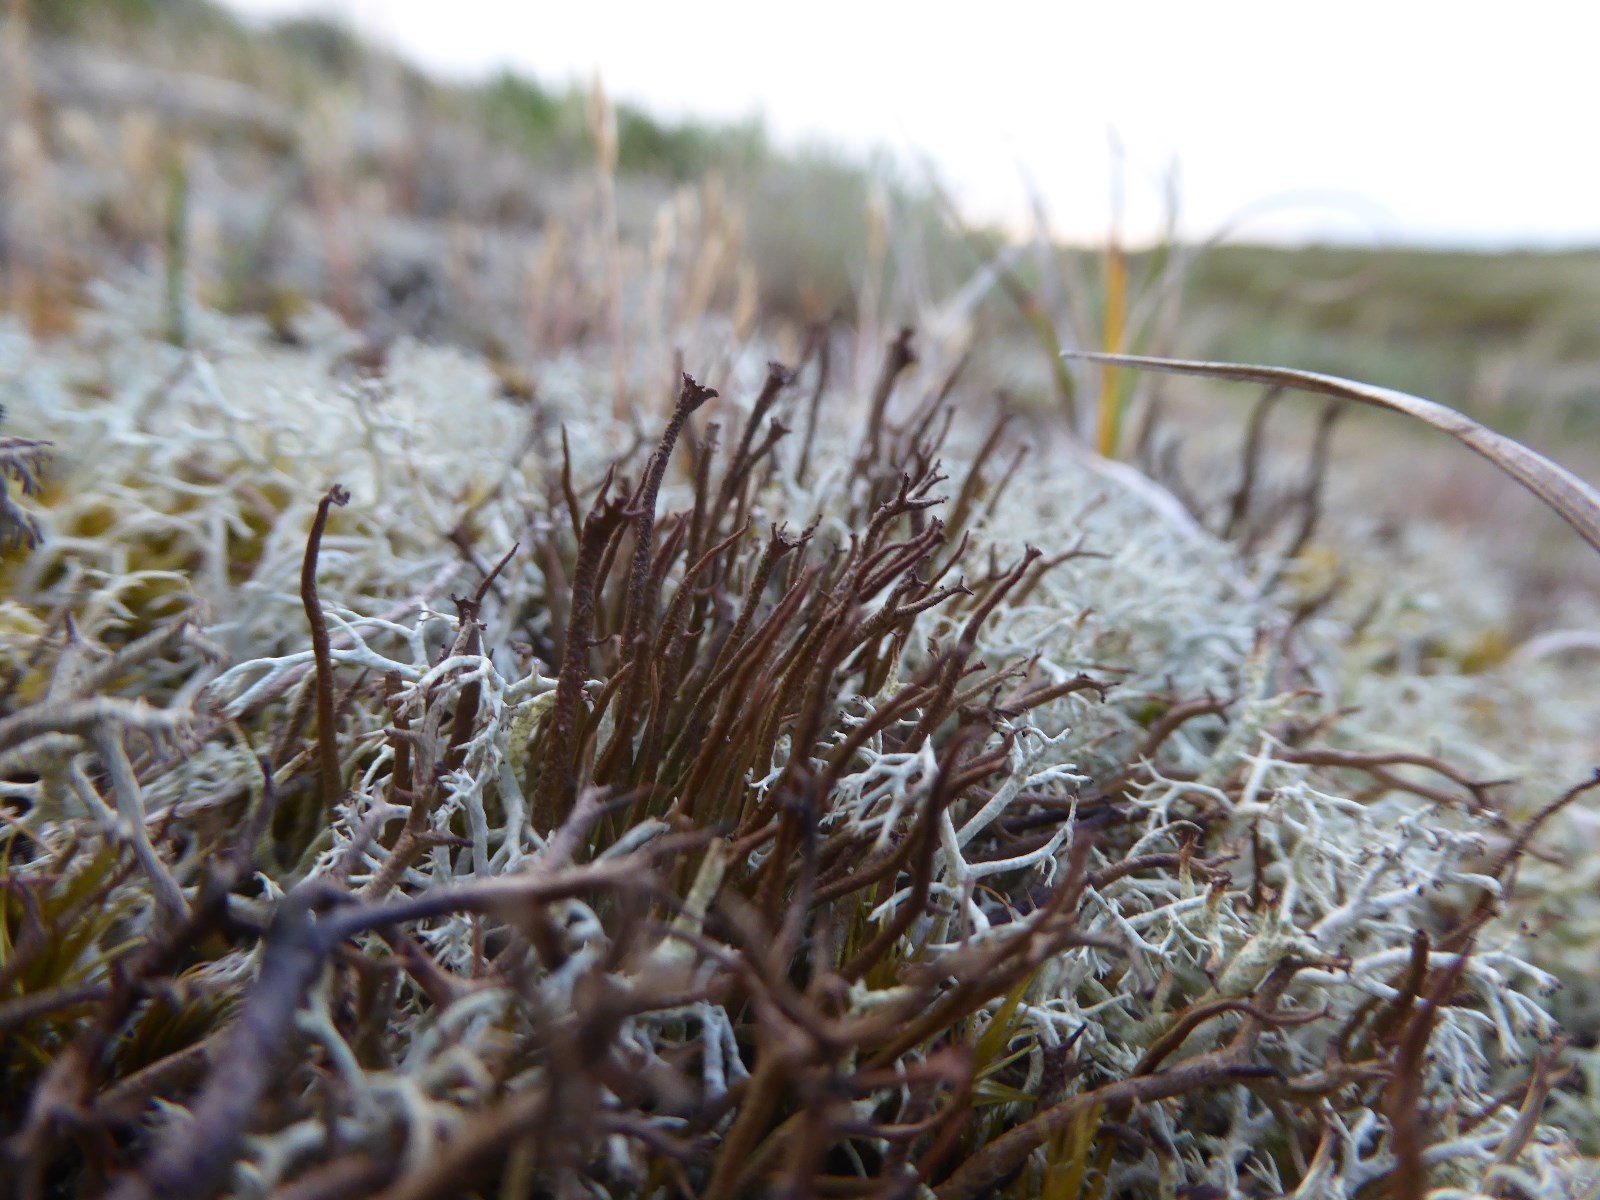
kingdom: Fungi
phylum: Ascomycota
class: Lecanoromycetes
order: Lecanorales
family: Cladoniaceae
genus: Cladonia
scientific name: Cladonia gracilis
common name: slank bægerlav
